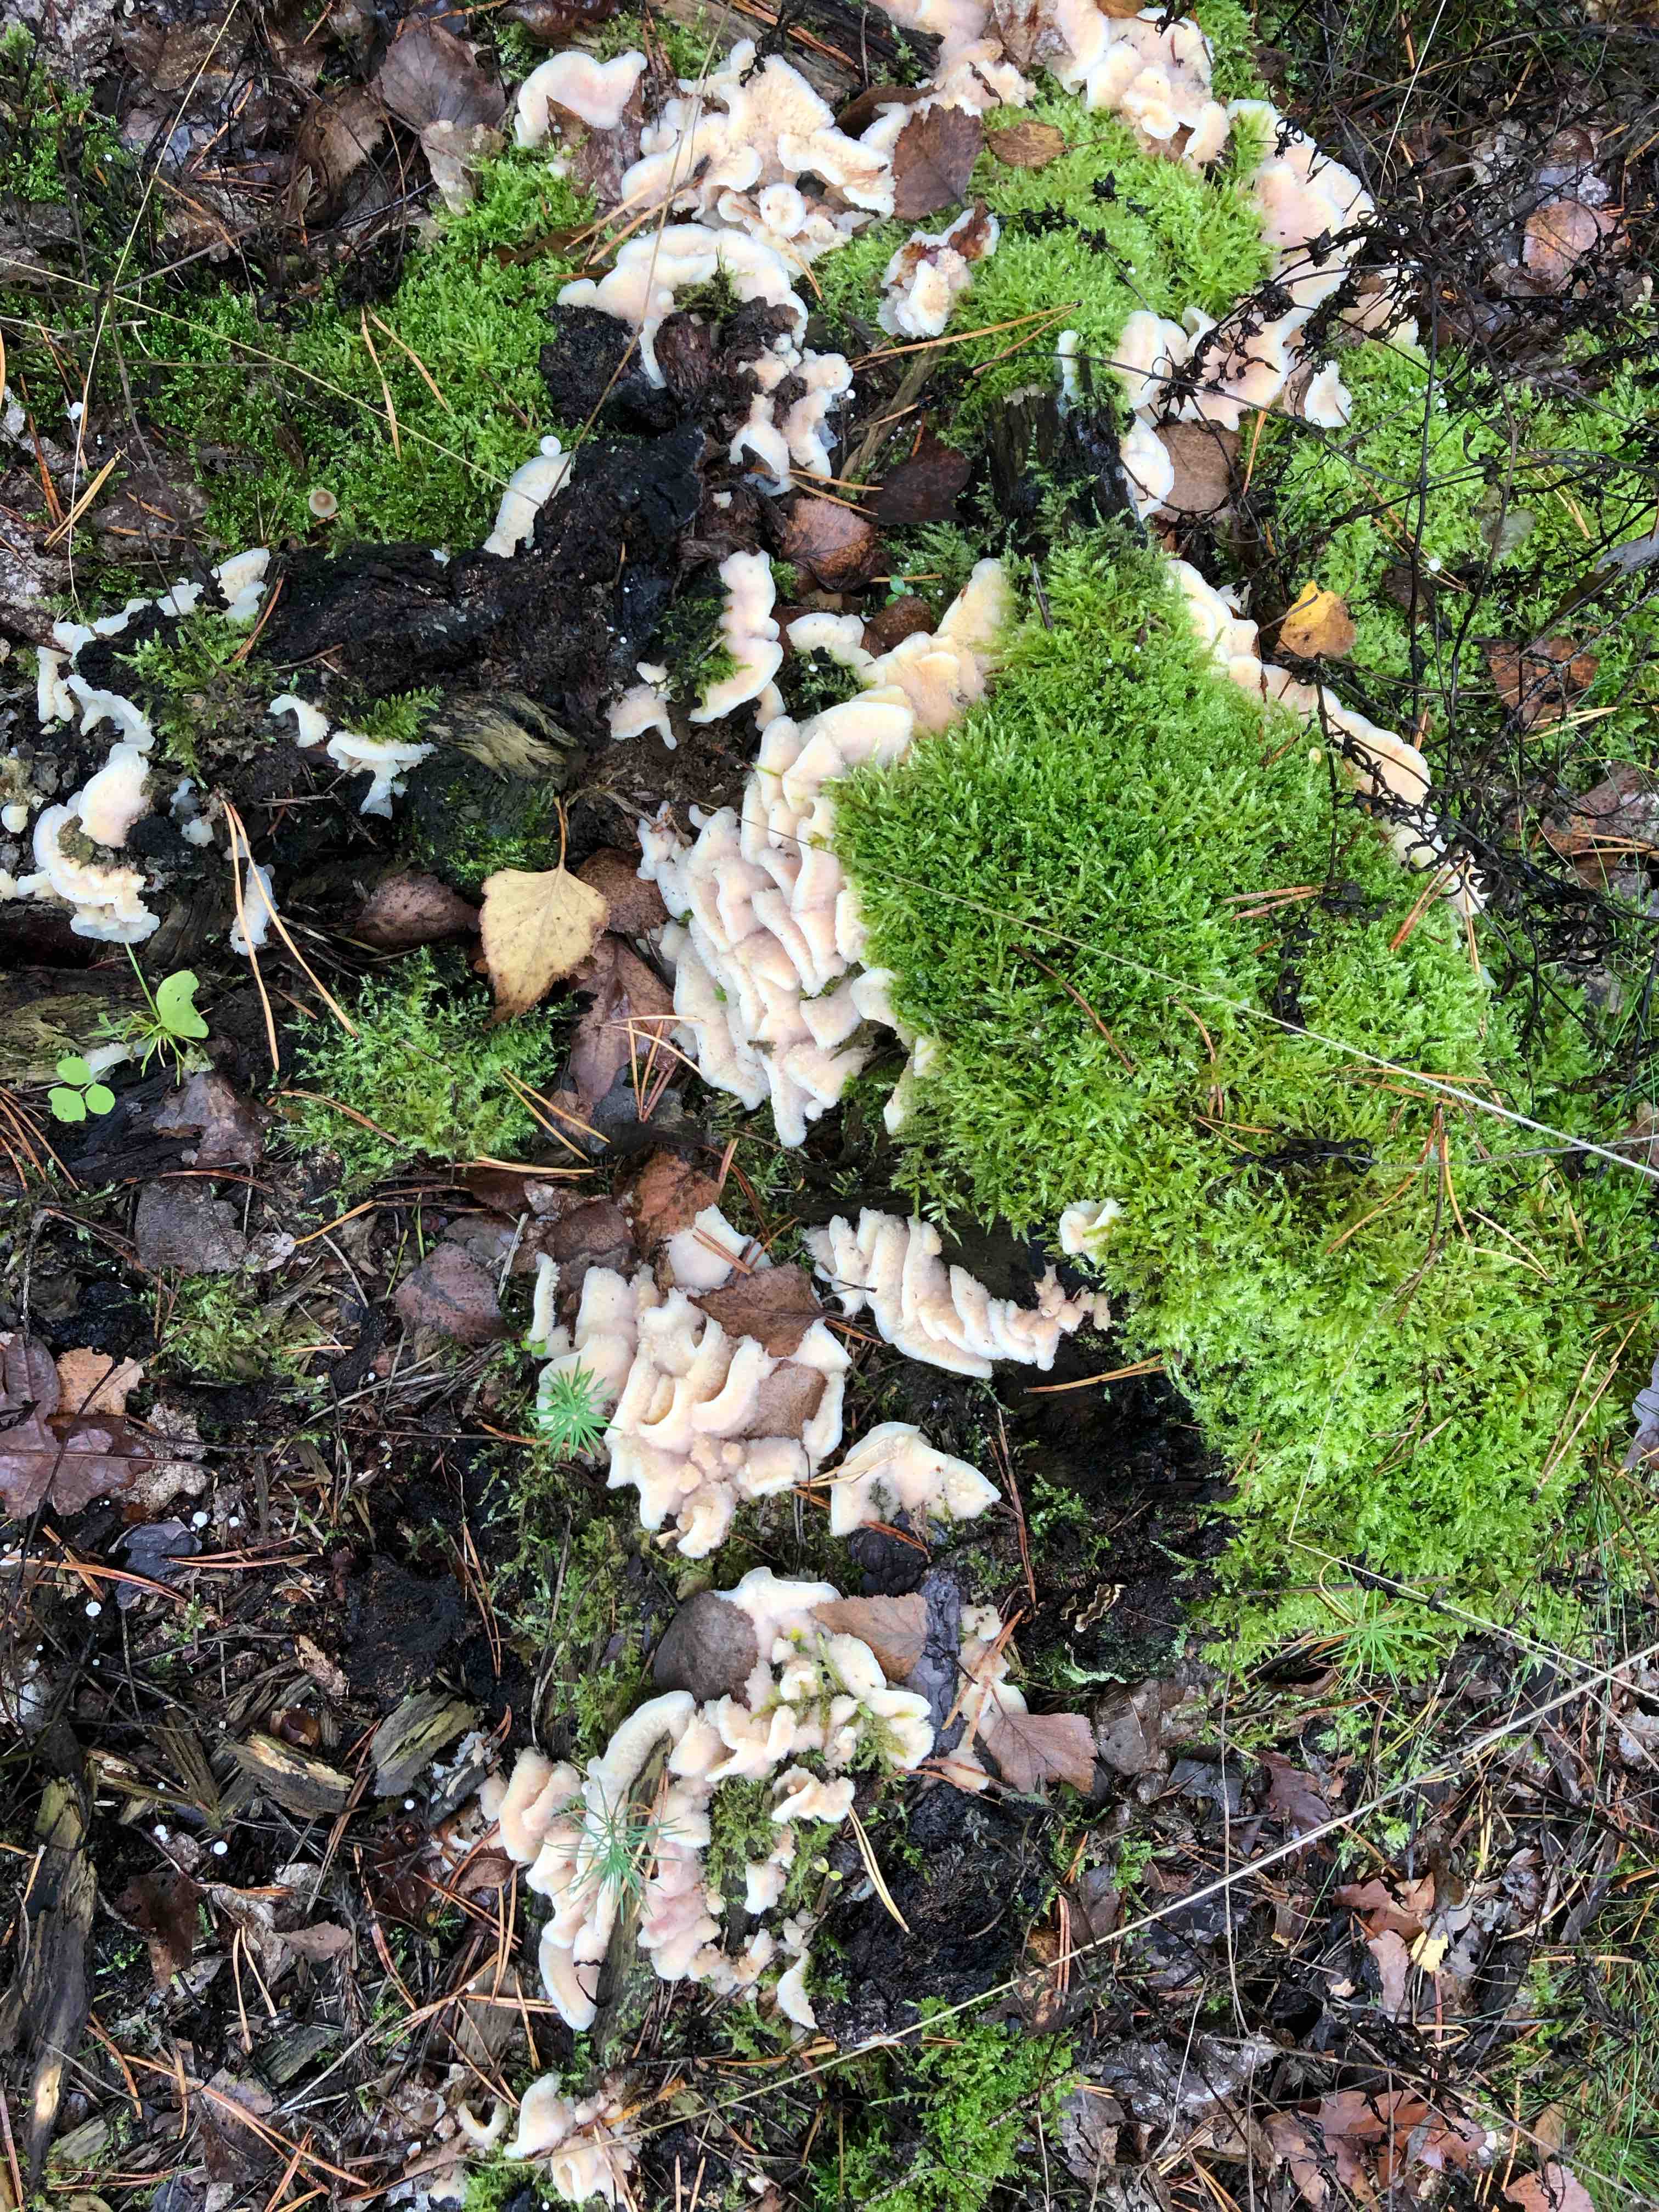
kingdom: Fungi
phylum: Basidiomycota
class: Agaricomycetes
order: Polyporales
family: Meruliaceae
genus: Phlebia
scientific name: Phlebia tremellosa
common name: bævrende åresvamp
